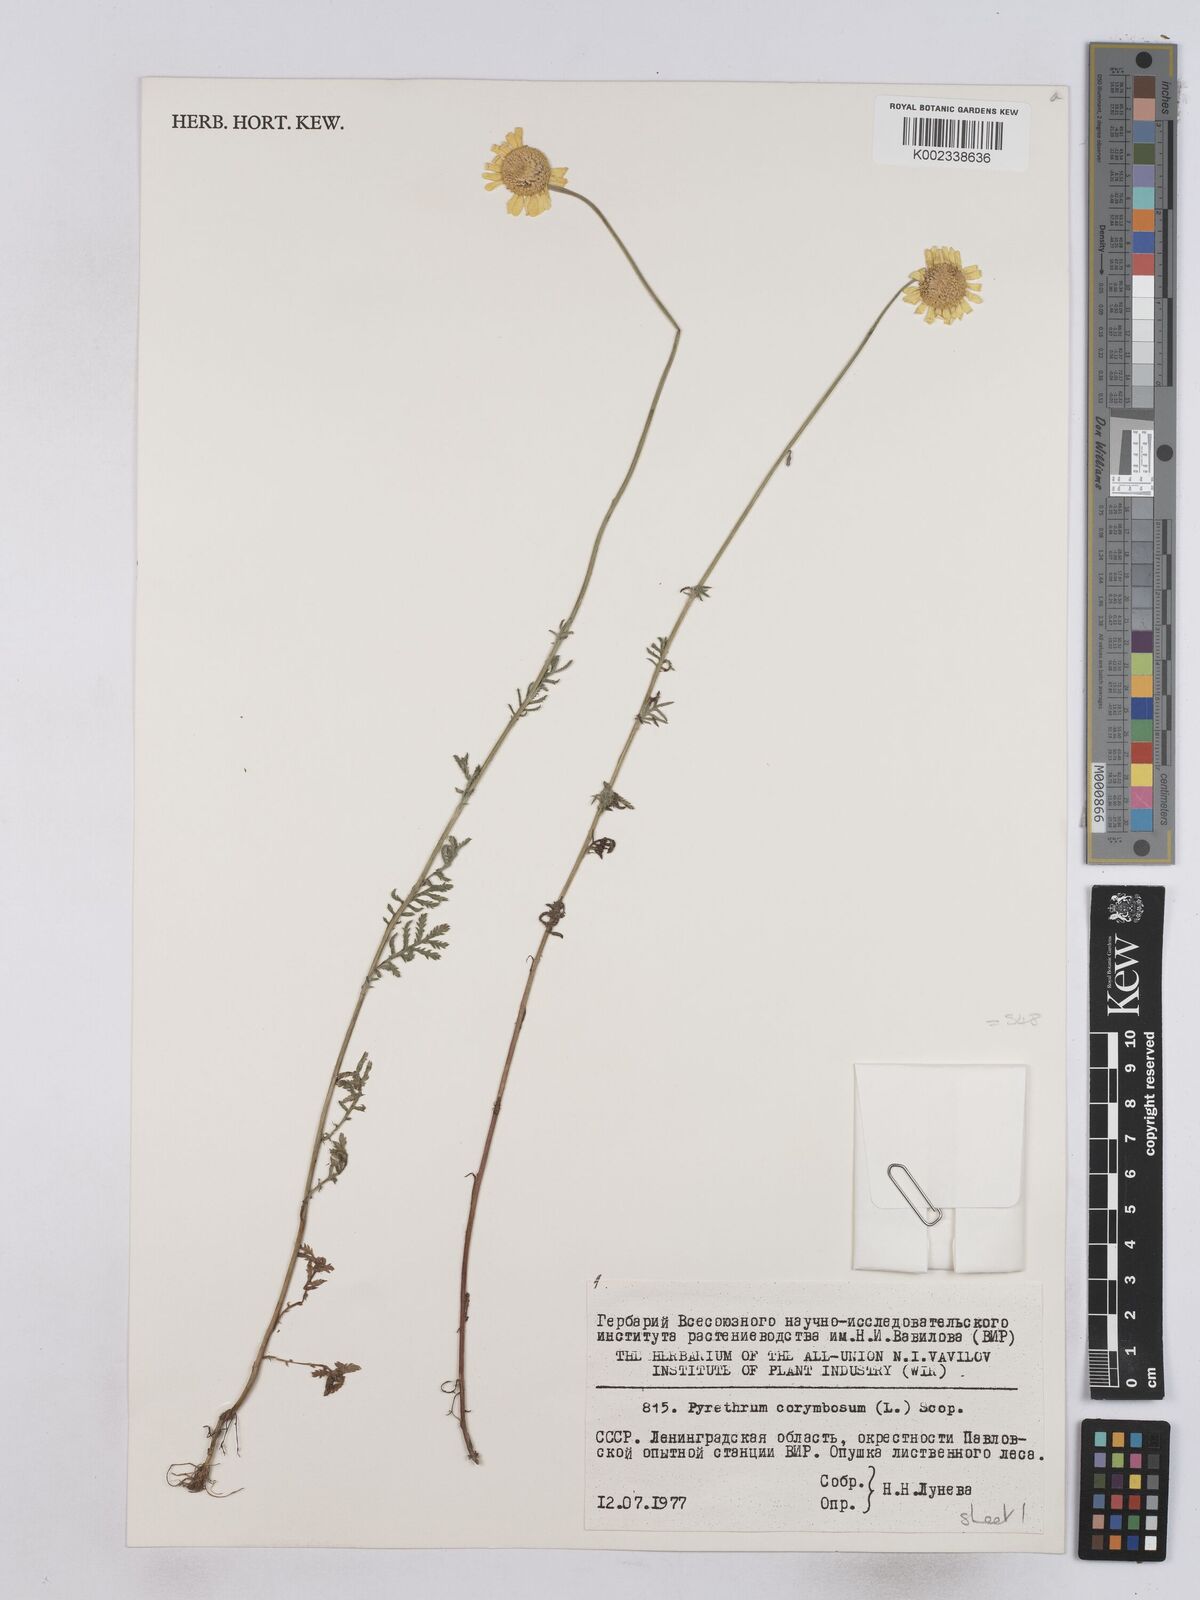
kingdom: Plantae
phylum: Tracheophyta
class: Magnoliopsida
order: Asterales
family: Asteraceae
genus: Tanacetum
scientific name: Tanacetum corymbosum
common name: Scentless feverfew
